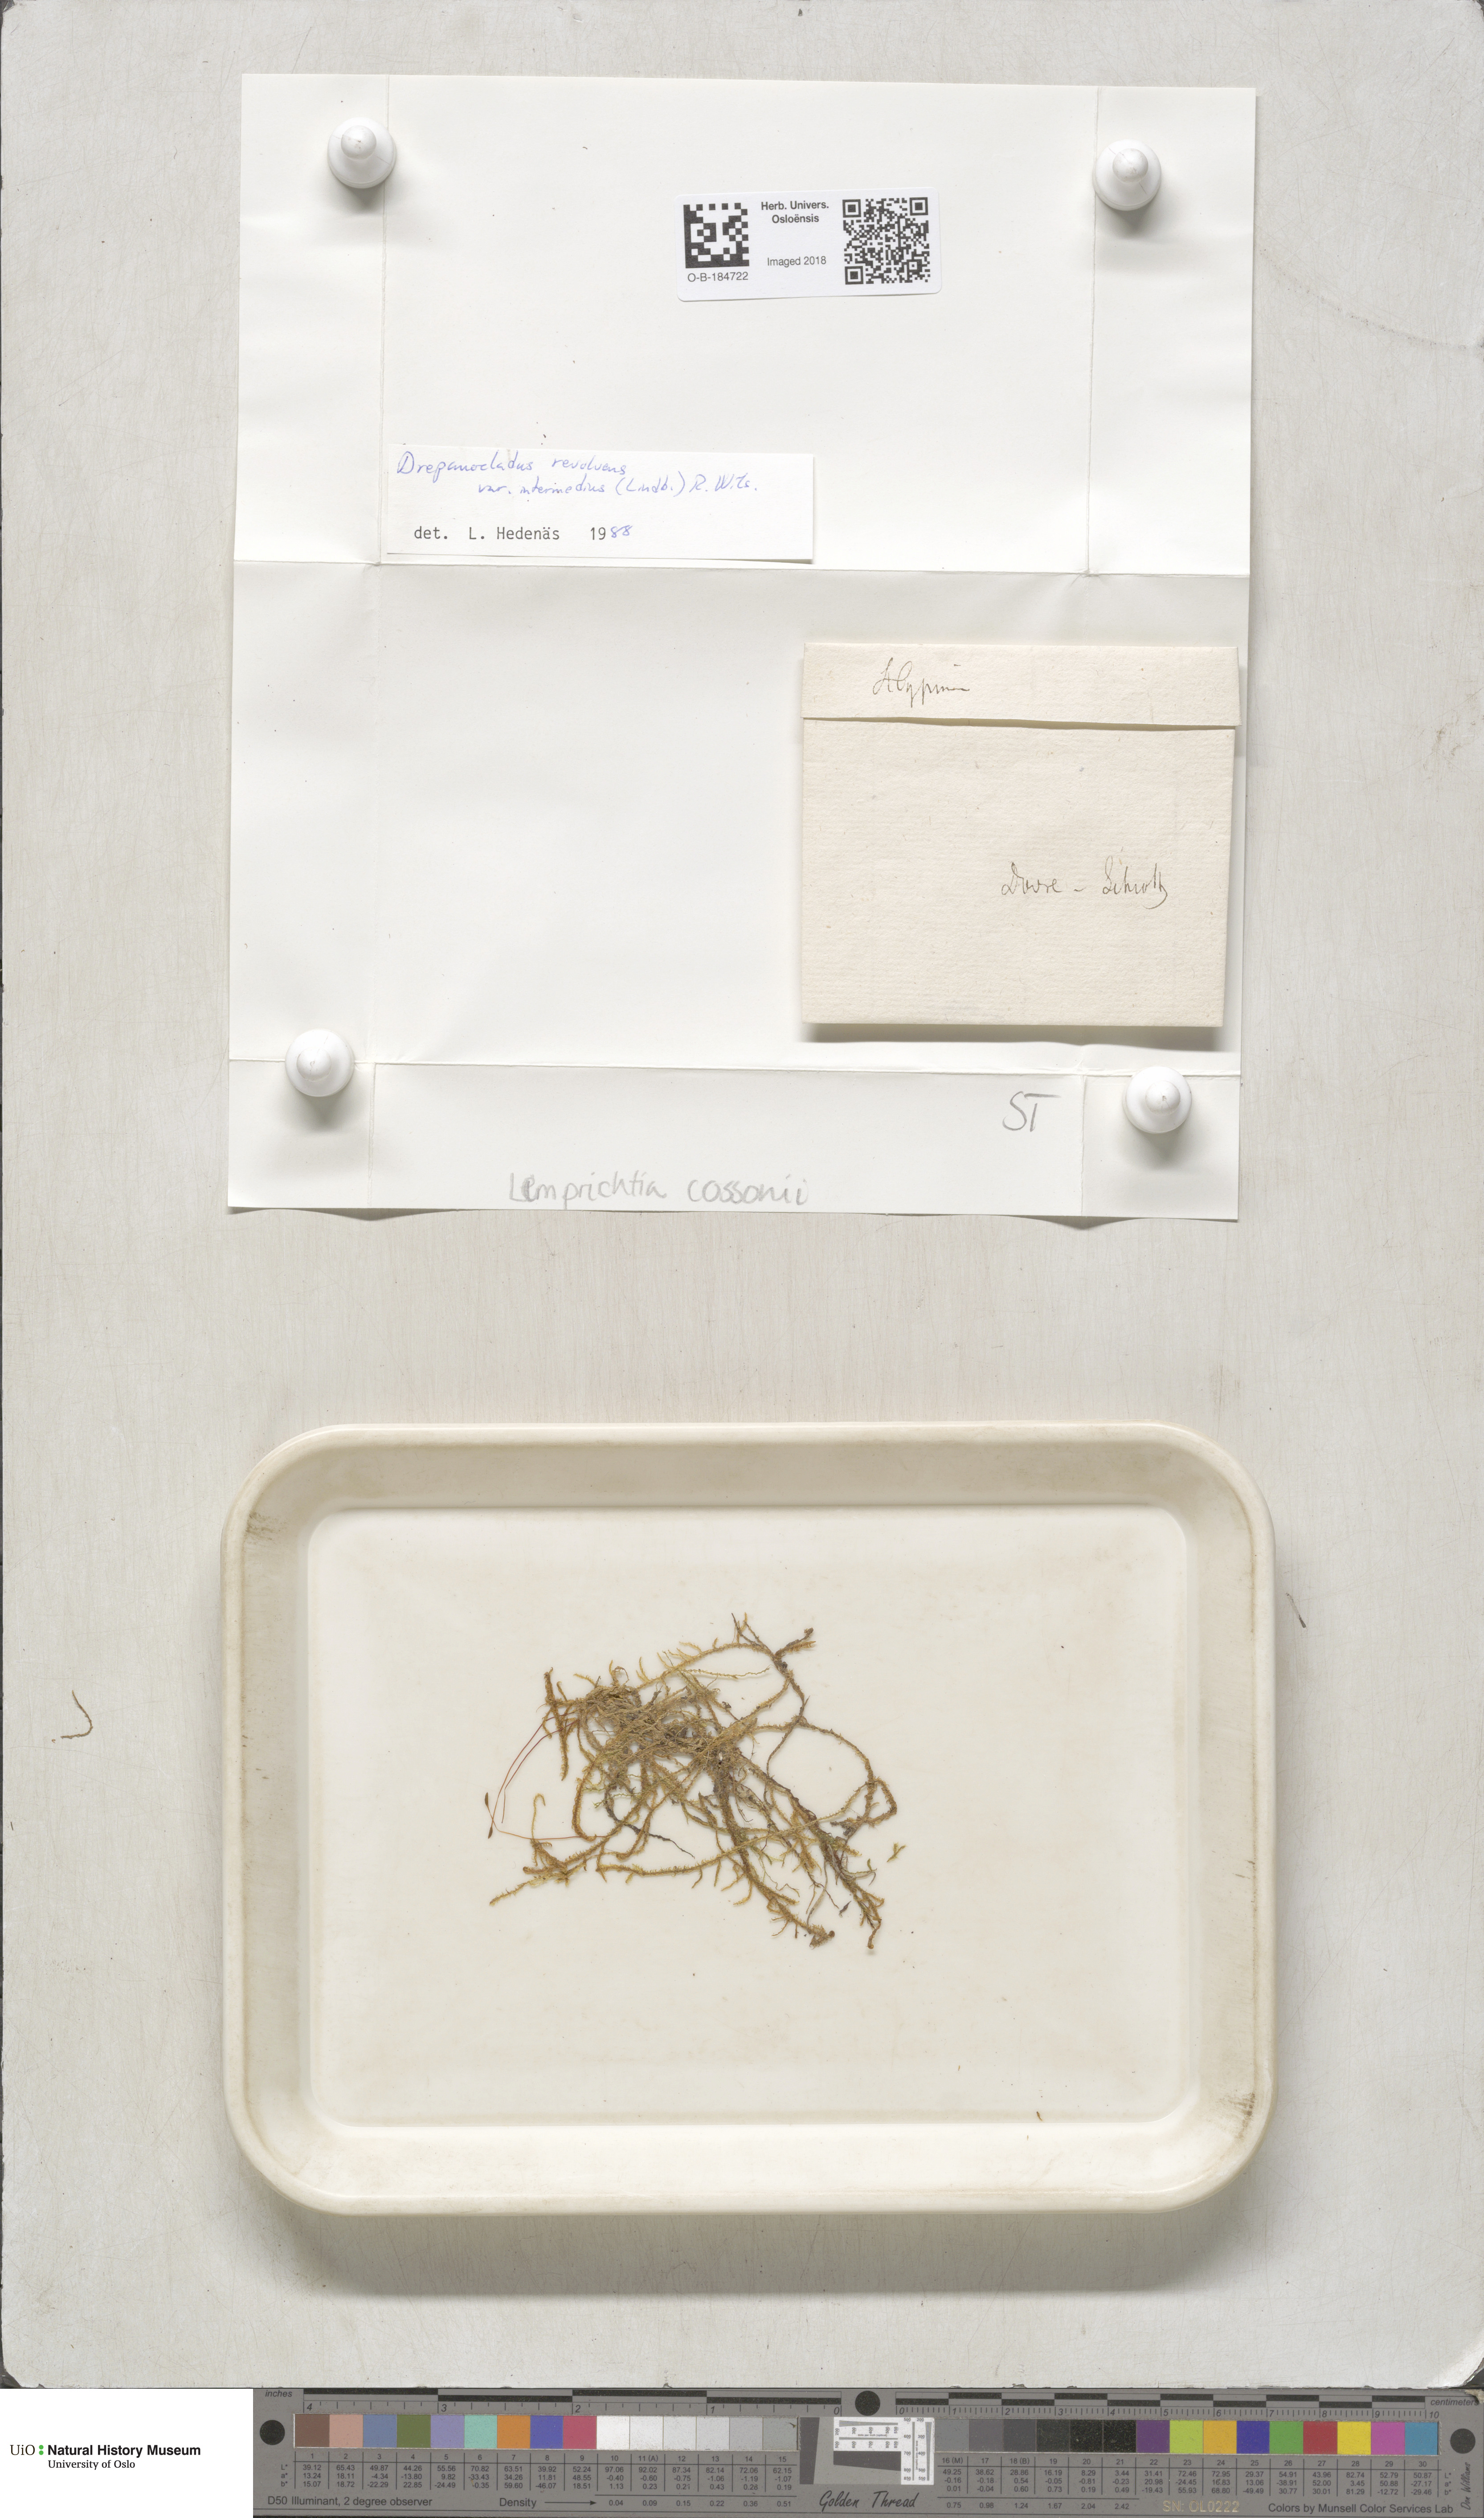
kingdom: Plantae
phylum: Bryophyta
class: Bryopsida
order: Hypnales
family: Scorpidiaceae
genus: Scorpidium
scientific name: Scorpidium cossonii
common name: Cosson's hook moss
